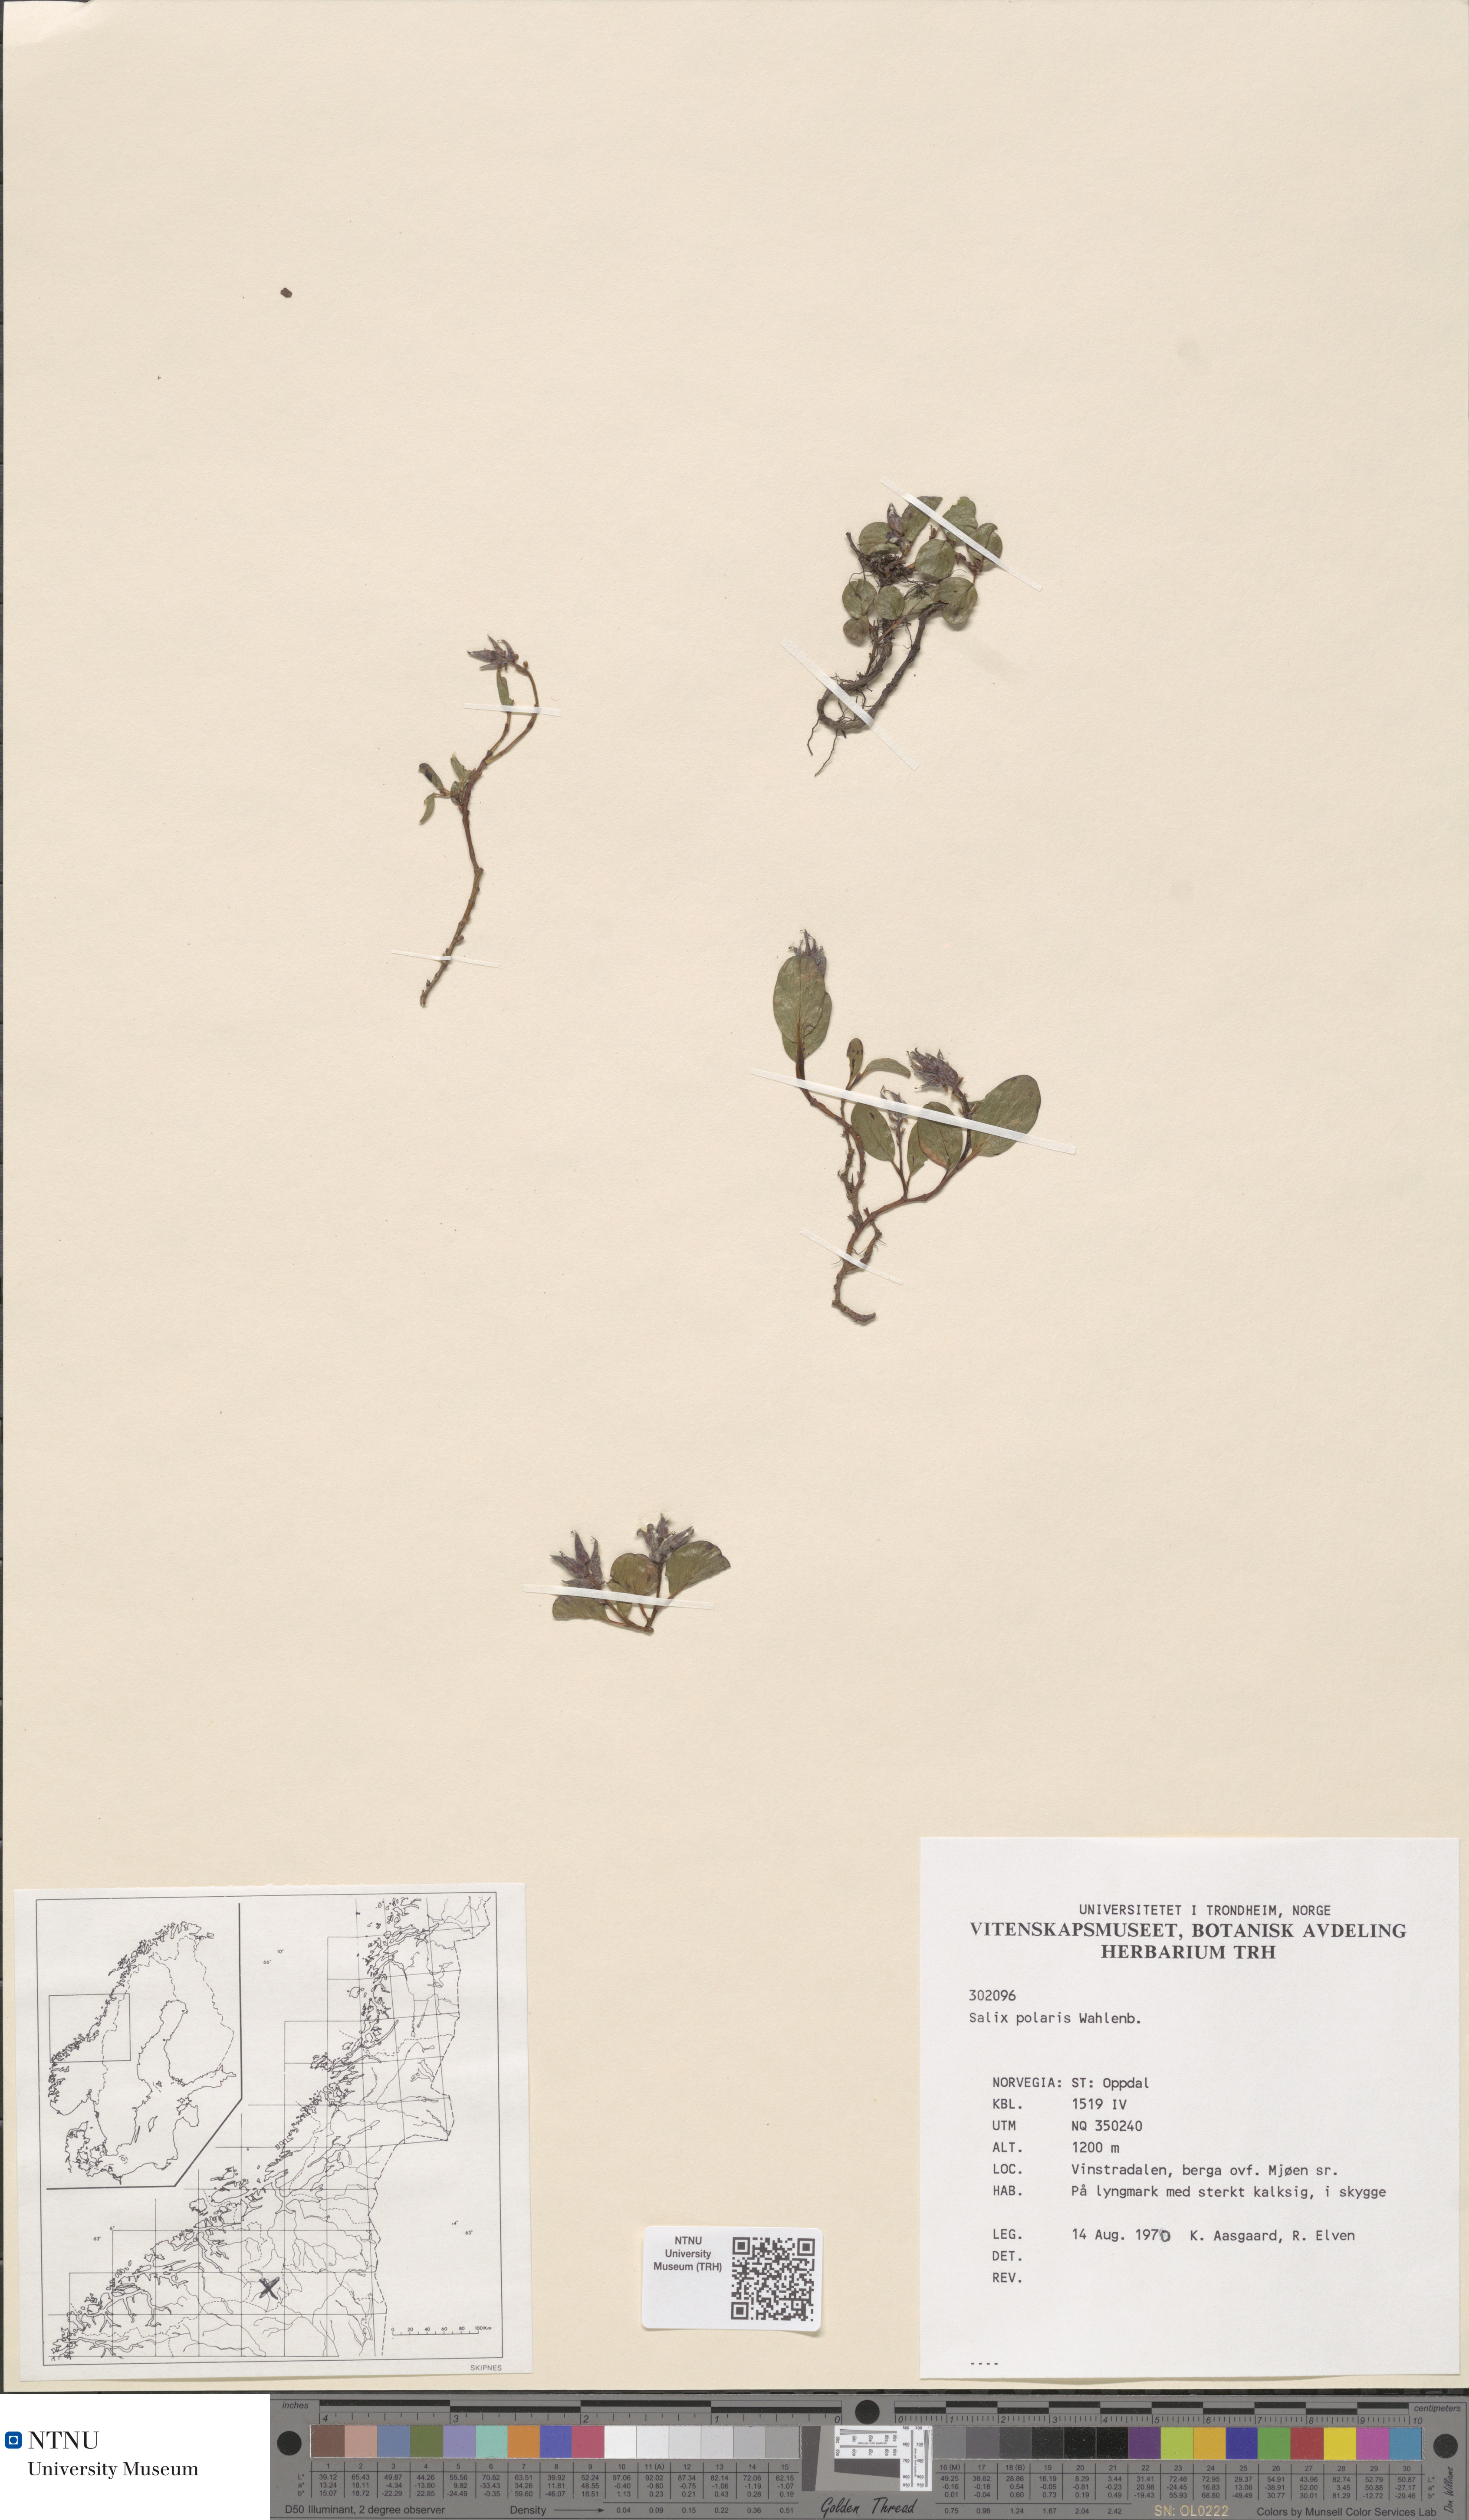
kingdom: Plantae
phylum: Tracheophyta
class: Magnoliopsida
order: Malpighiales
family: Salicaceae
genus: Salix
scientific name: Salix polaris
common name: Polar willow
